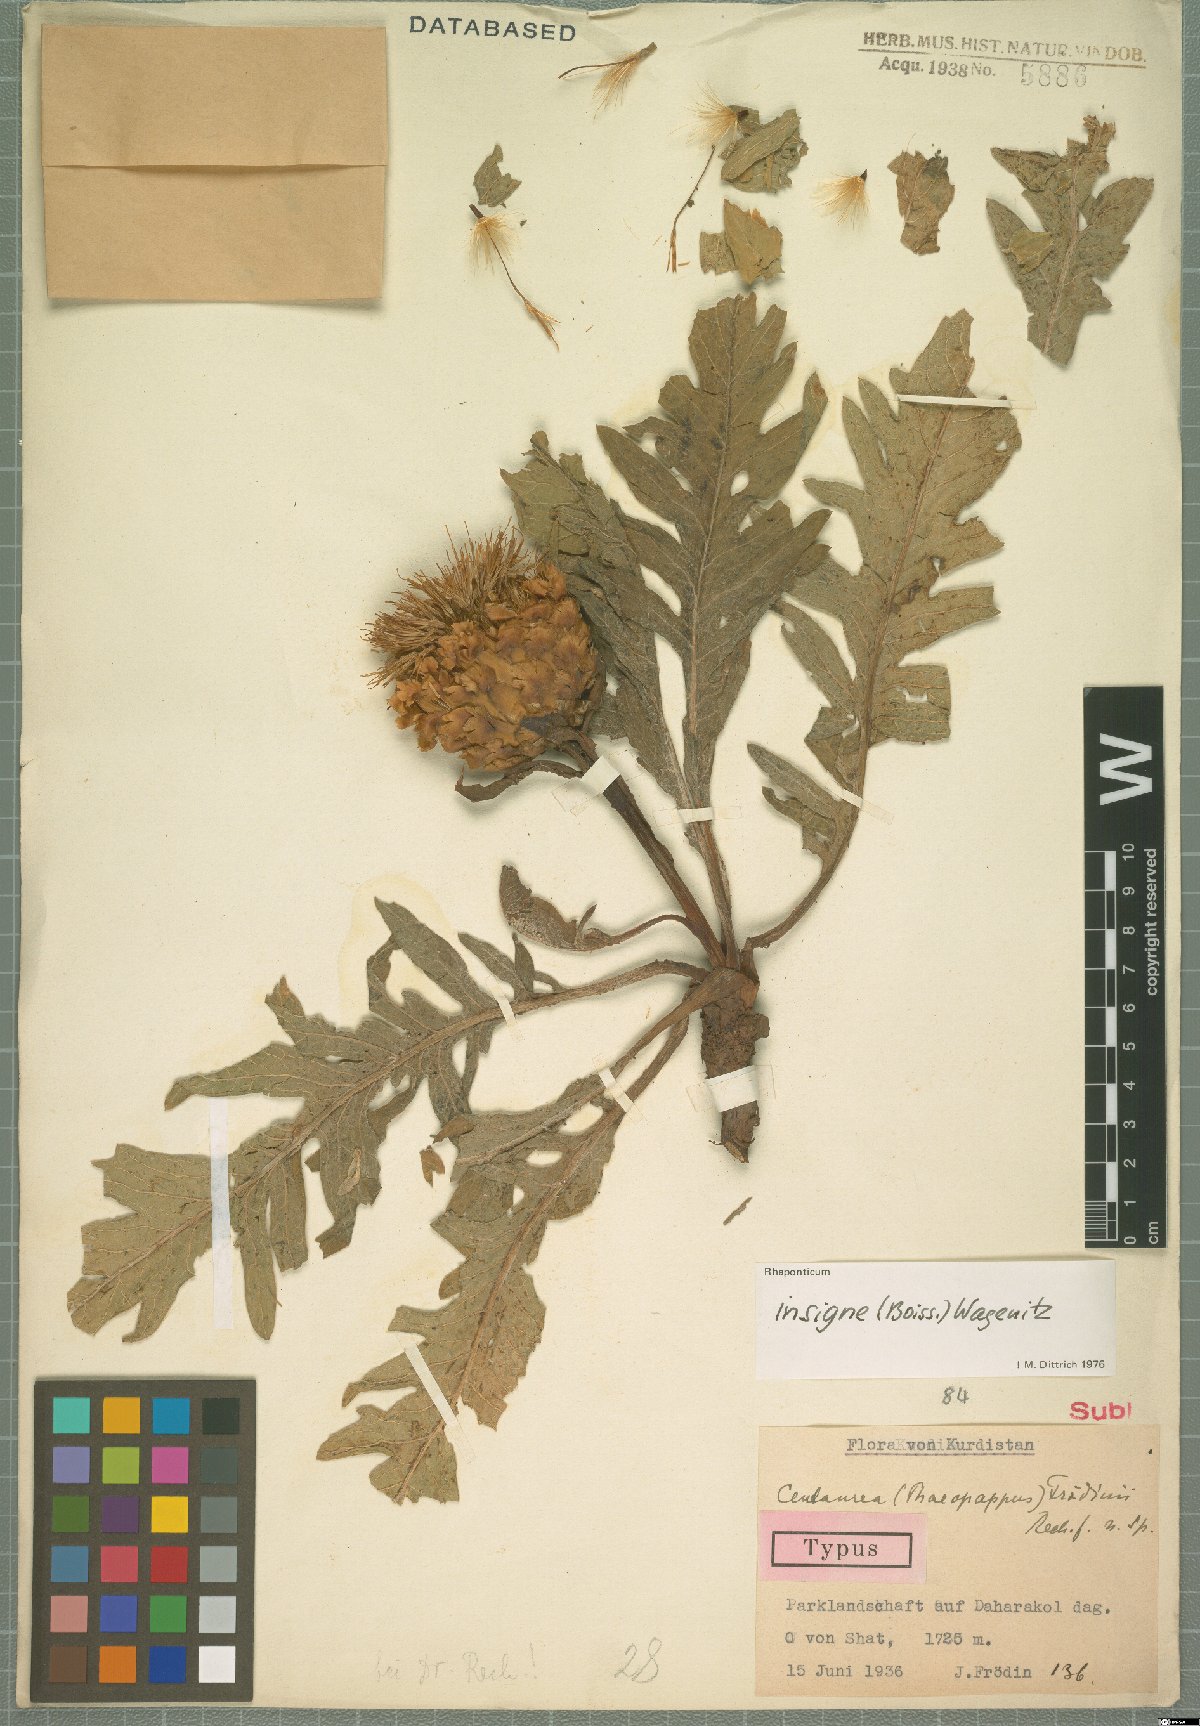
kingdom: Plantae
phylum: Tracheophyta
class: Magnoliopsida
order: Asterales
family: Asteraceae
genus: Leuzea
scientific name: Leuzea insignis
